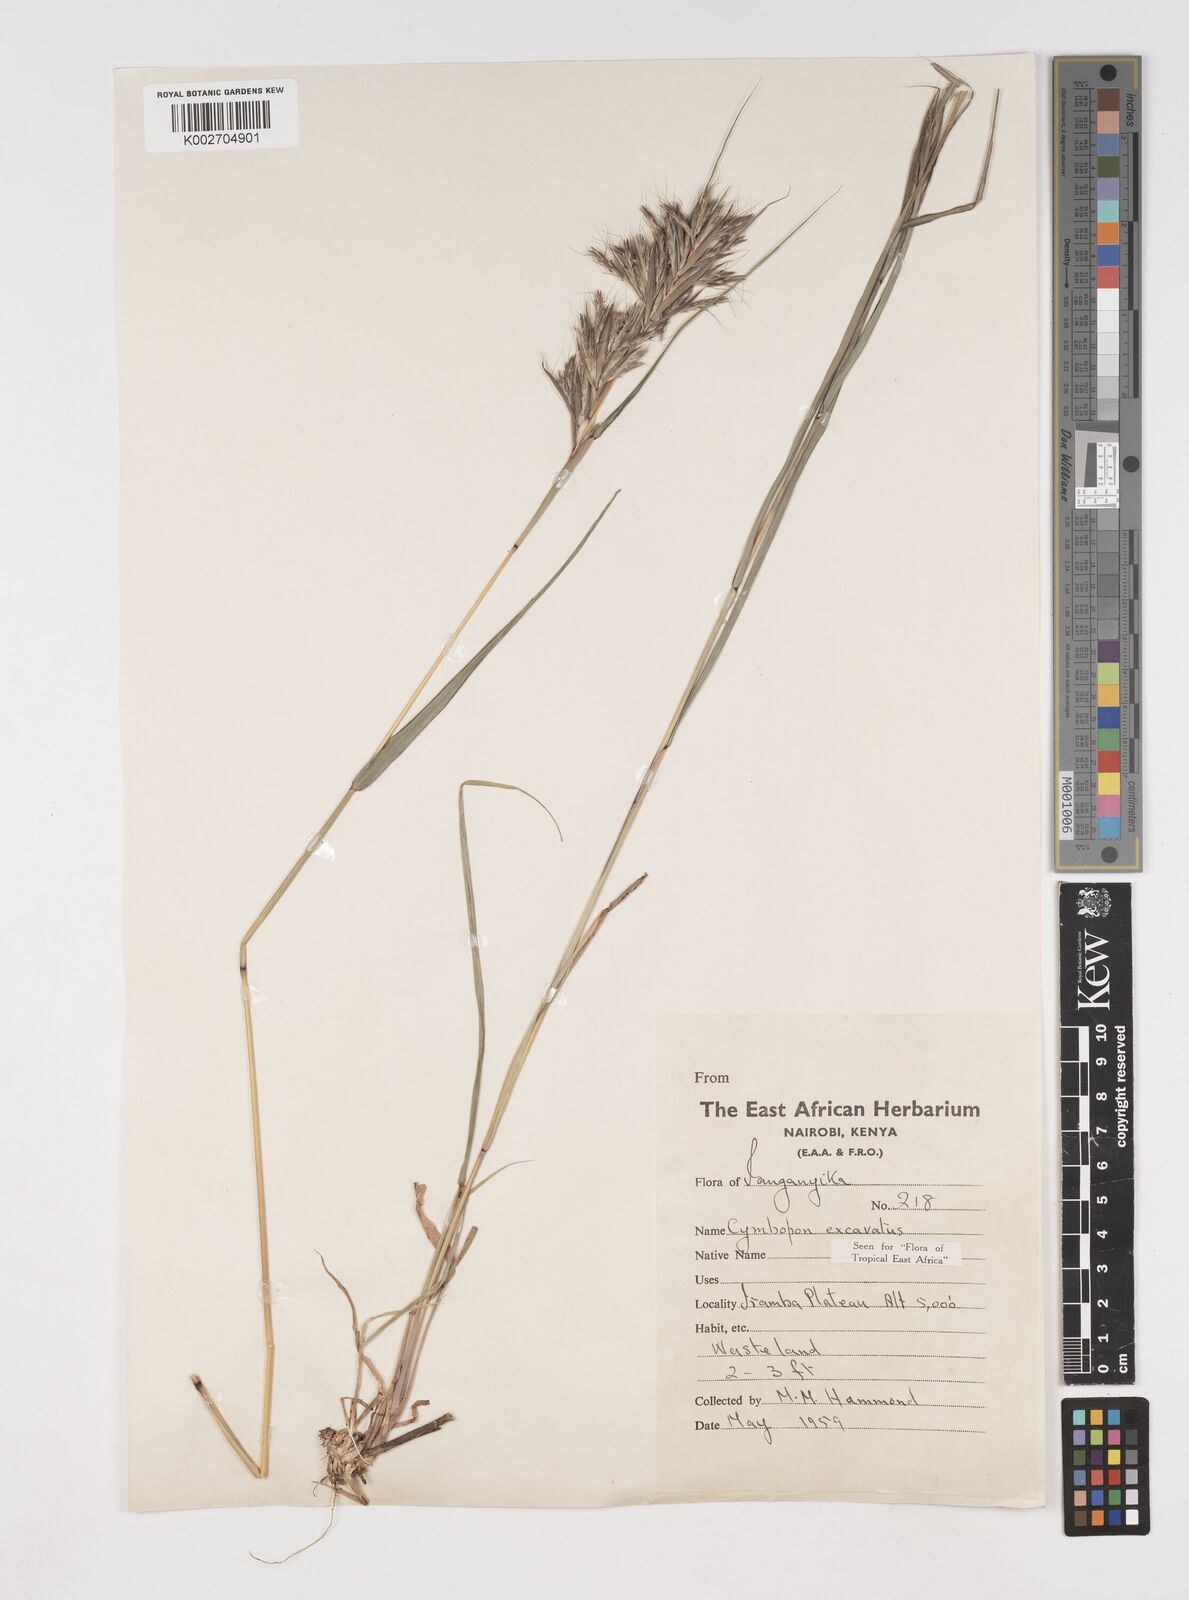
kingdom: Plantae
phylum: Tracheophyta
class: Liliopsida
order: Poales
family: Poaceae
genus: Cymbopogon
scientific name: Cymbopogon caesius
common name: Kachi grass
